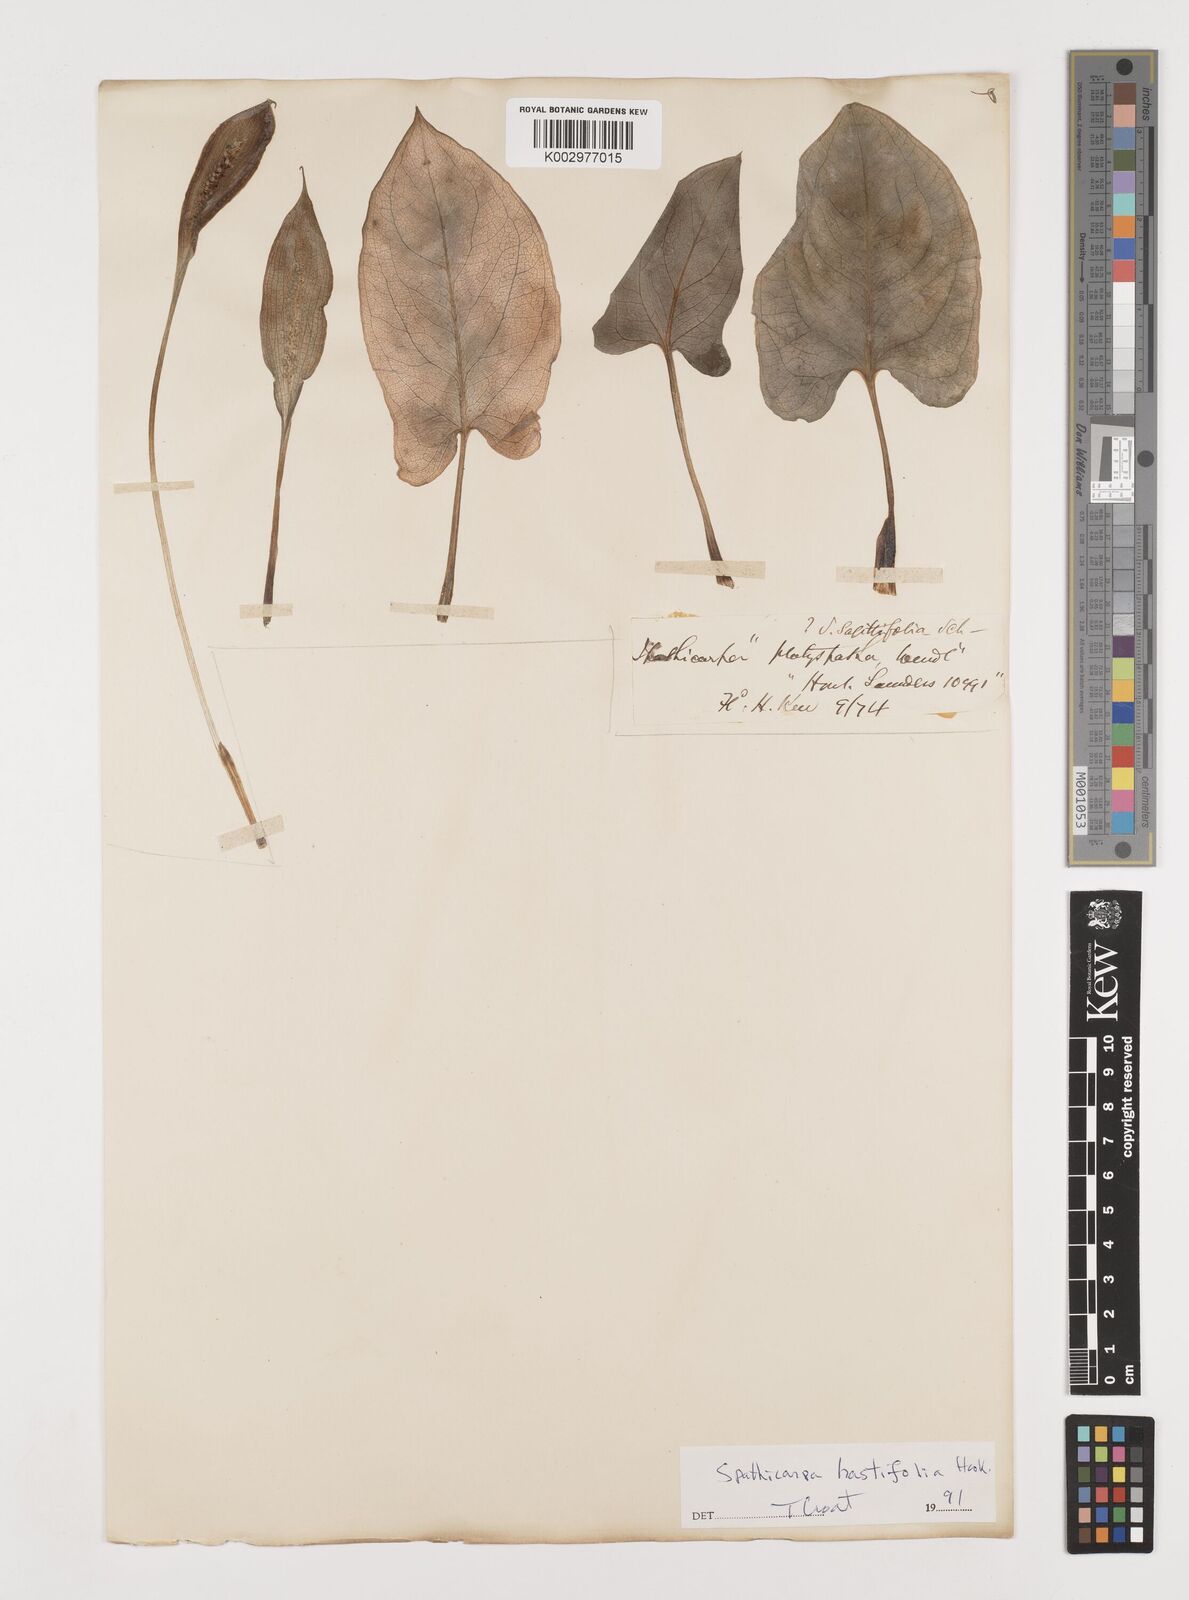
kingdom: Plantae
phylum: Tracheophyta
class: Liliopsida
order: Alismatales
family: Araceae
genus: Spathicarpa
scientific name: Spathicarpa hastifolia
